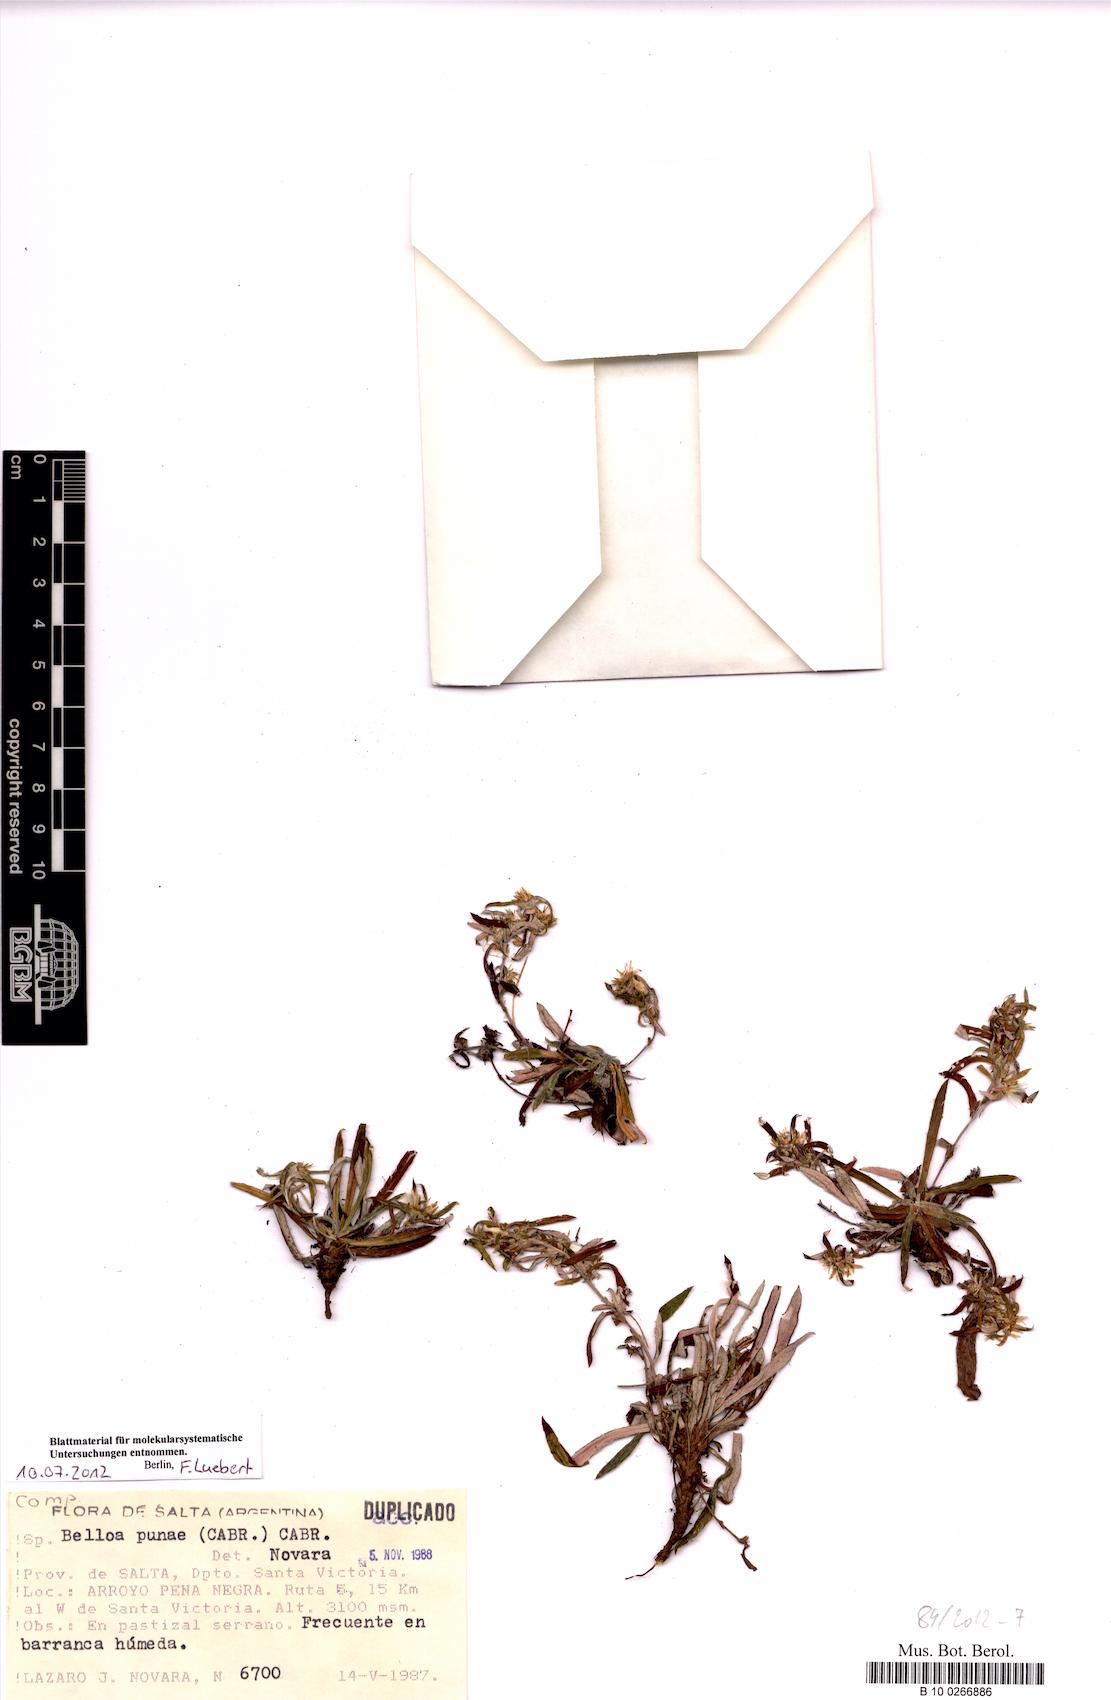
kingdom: Plantae
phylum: Tracheophyta
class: Magnoliopsida
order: Asterales
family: Asteraceae
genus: Mniodes
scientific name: Mniodes subspicata
